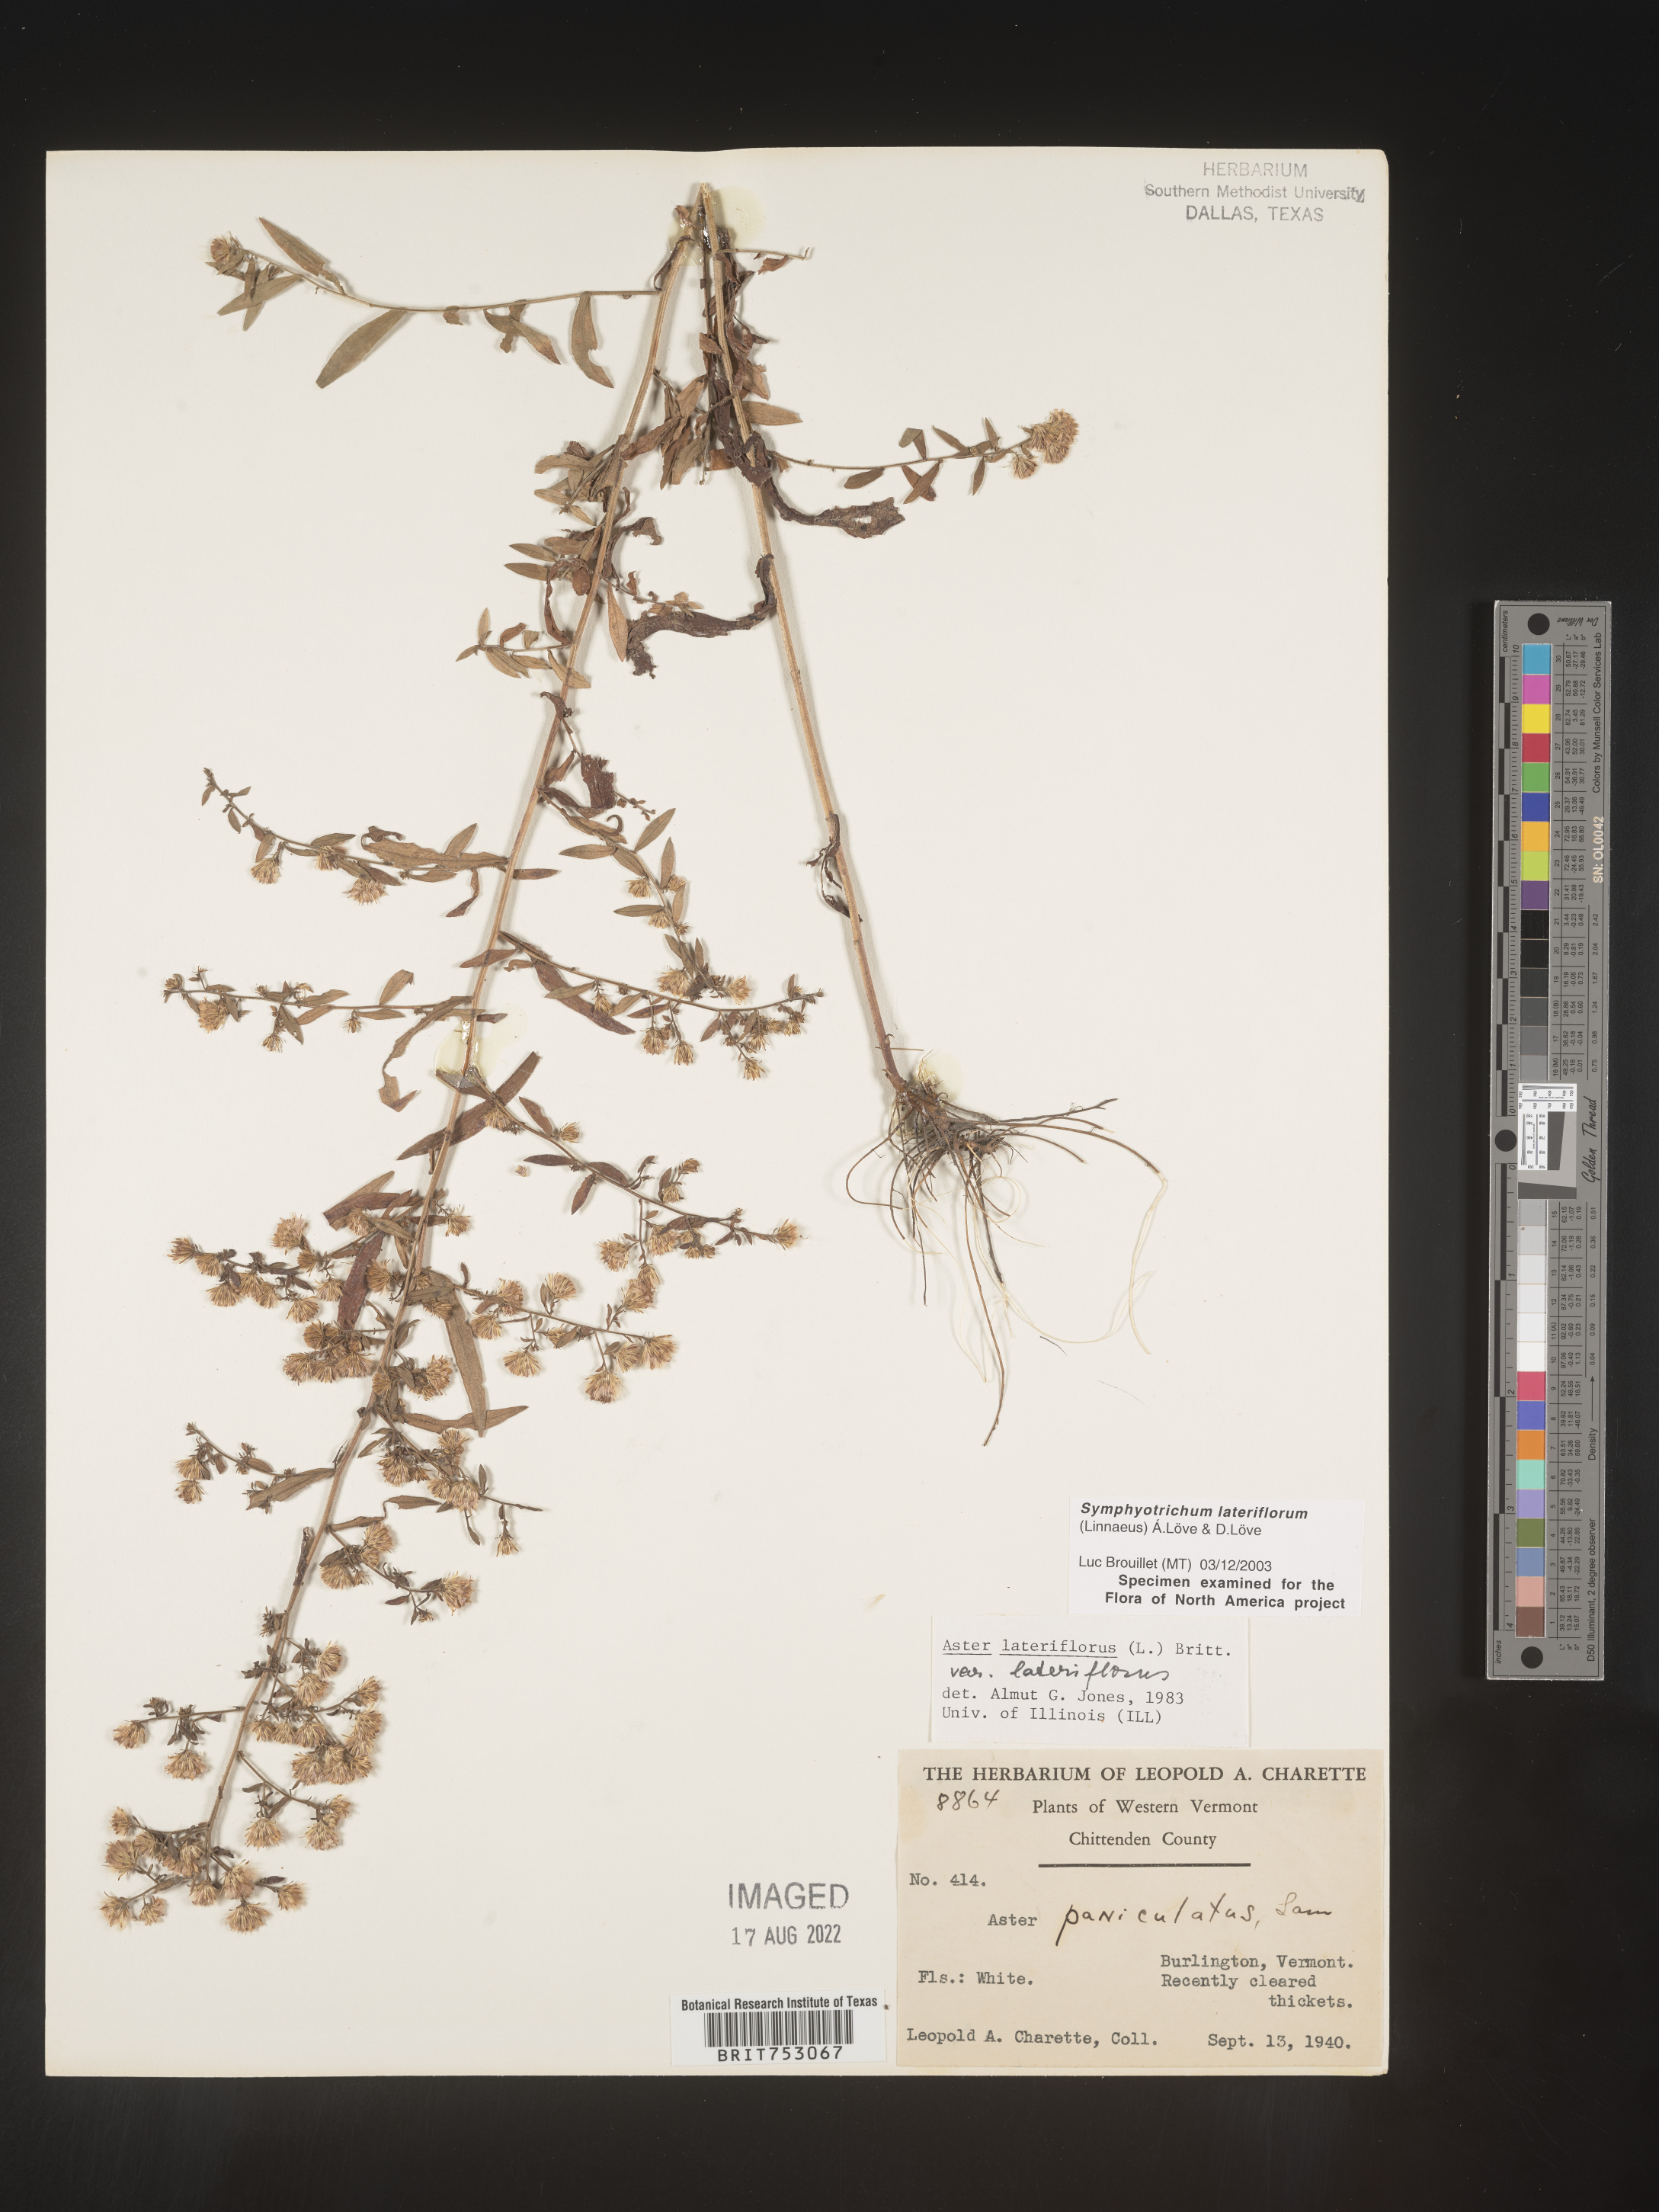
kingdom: Plantae
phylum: Tracheophyta
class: Magnoliopsida
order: Asterales
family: Asteraceae
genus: Symphyotrichum
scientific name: Symphyotrichum lateriflorum
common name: Calico aster
